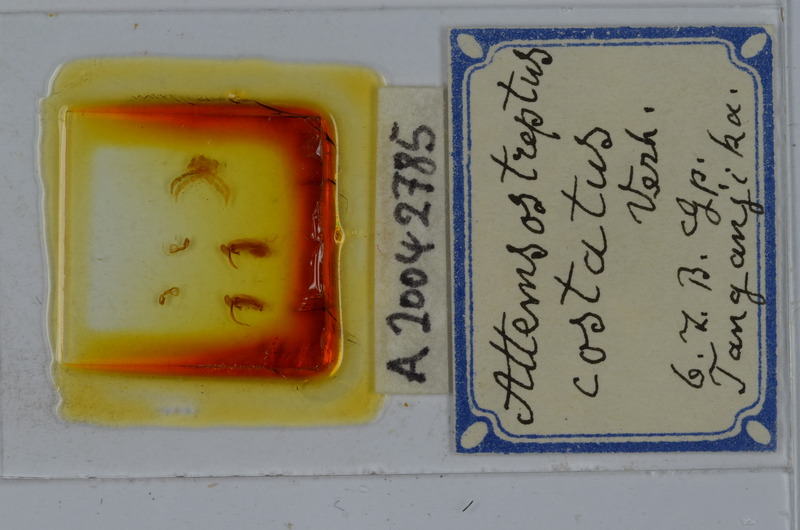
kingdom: Animalia
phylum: Arthropoda
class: Diplopoda
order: Spirostreptida
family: Spirostreptidae
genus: Attemsostreptus
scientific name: Attemsostreptus costatus
